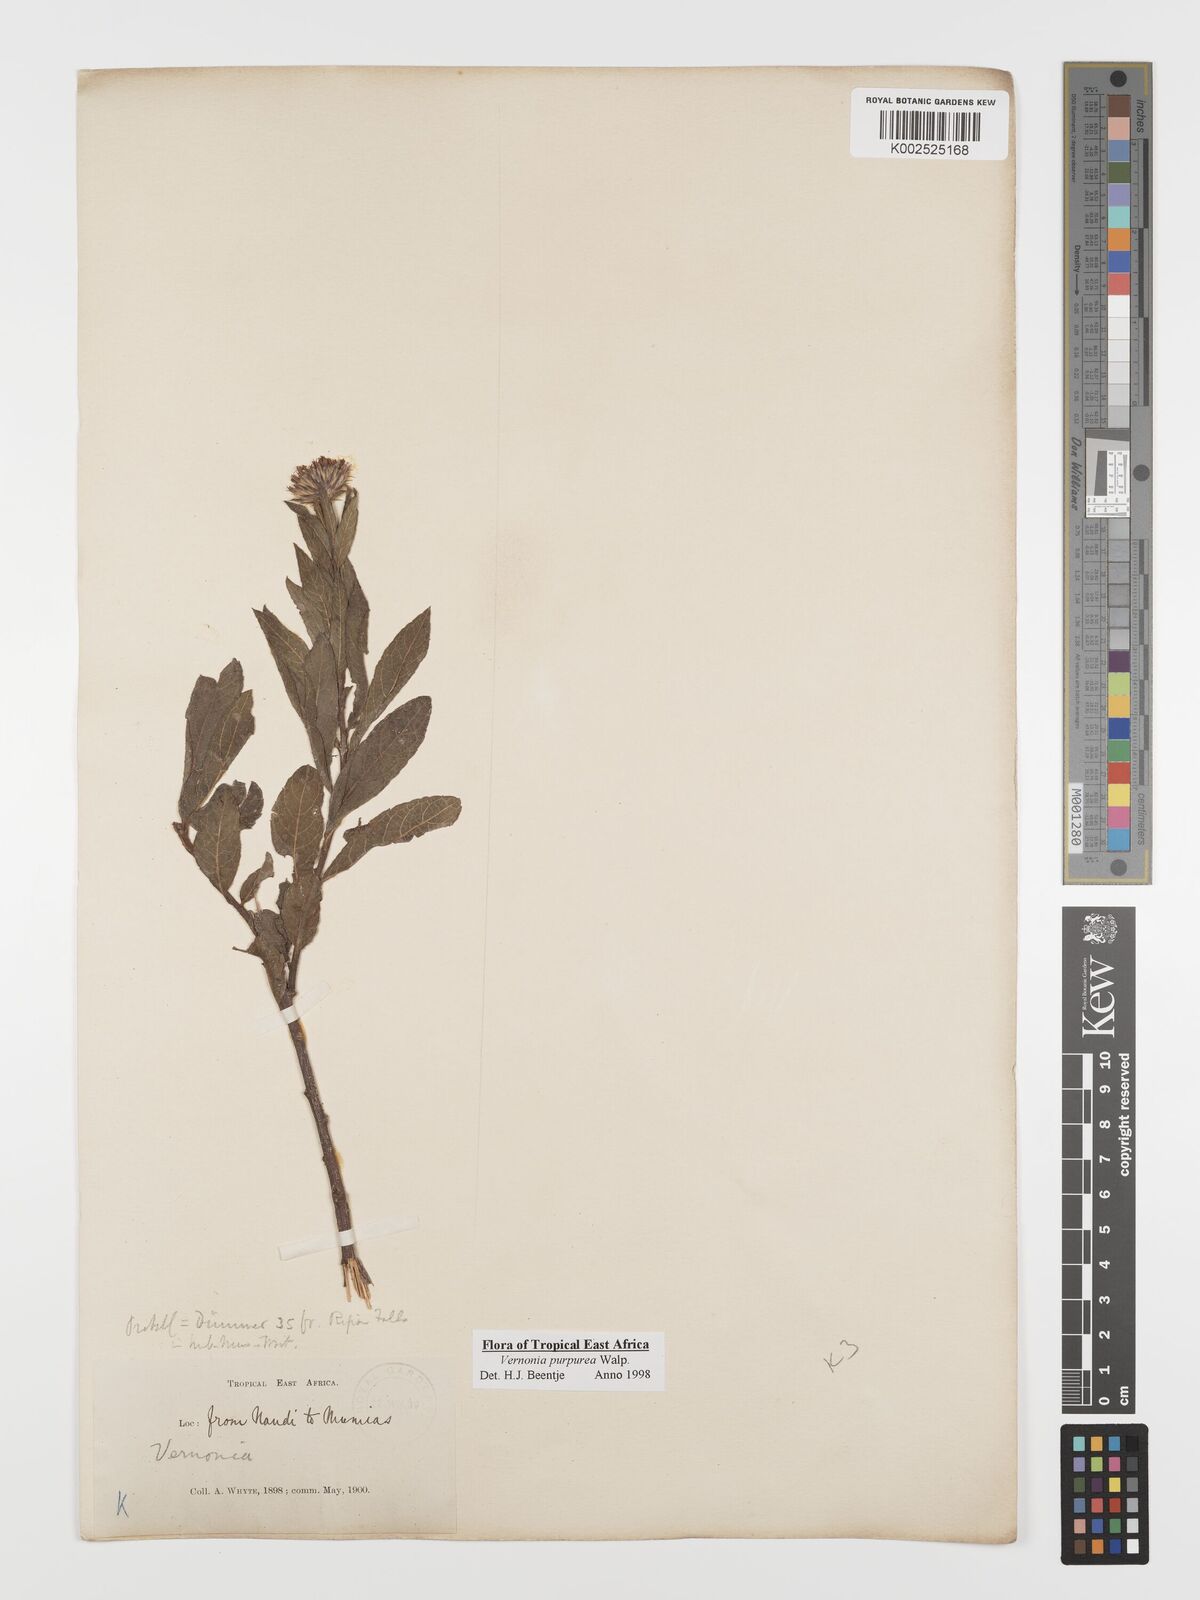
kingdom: Plantae
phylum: Tracheophyta
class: Magnoliopsida
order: Asterales
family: Asteraceae
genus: Nothovernonia
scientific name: Nothovernonia purpurea
